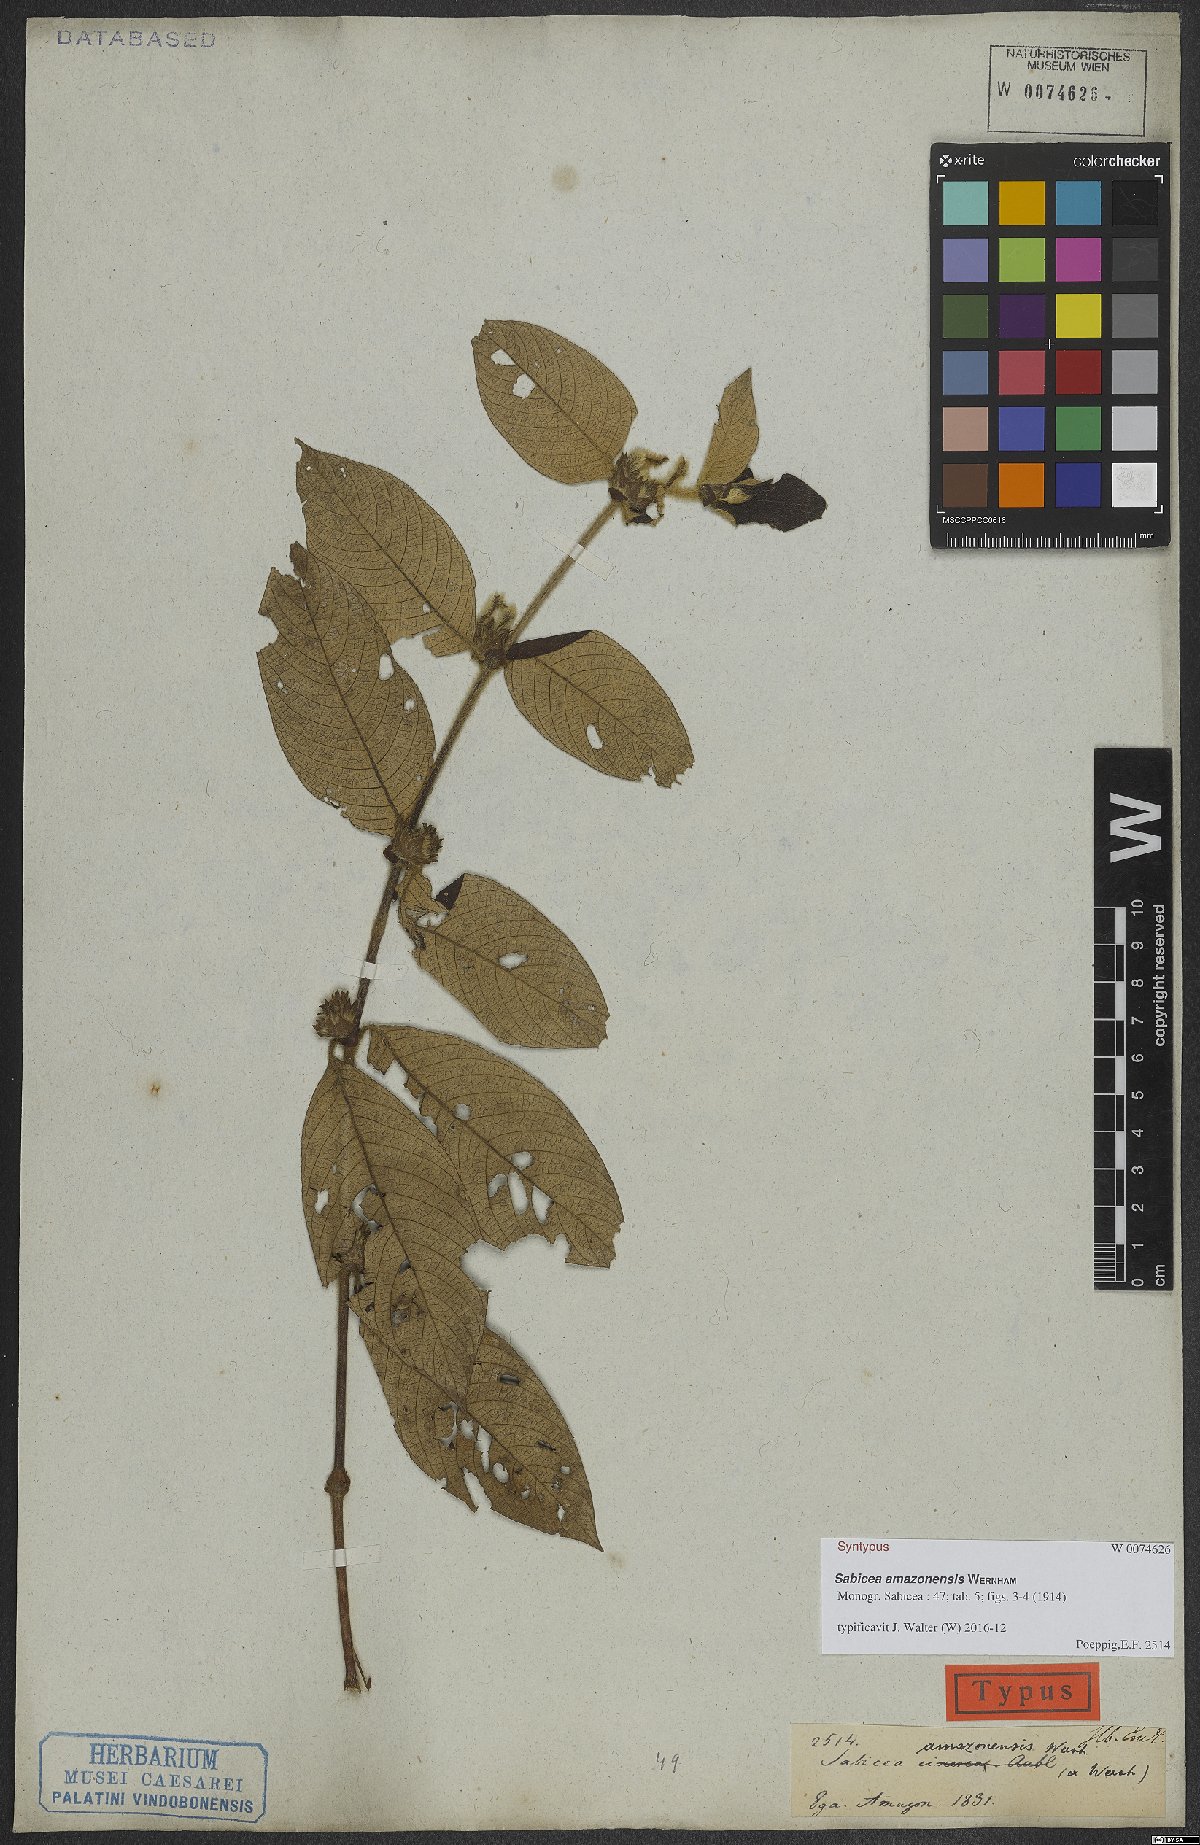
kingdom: Plantae
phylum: Tracheophyta
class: Magnoliopsida
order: Gentianales
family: Rubiaceae
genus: Sabicea
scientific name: Sabicea amazonensis
